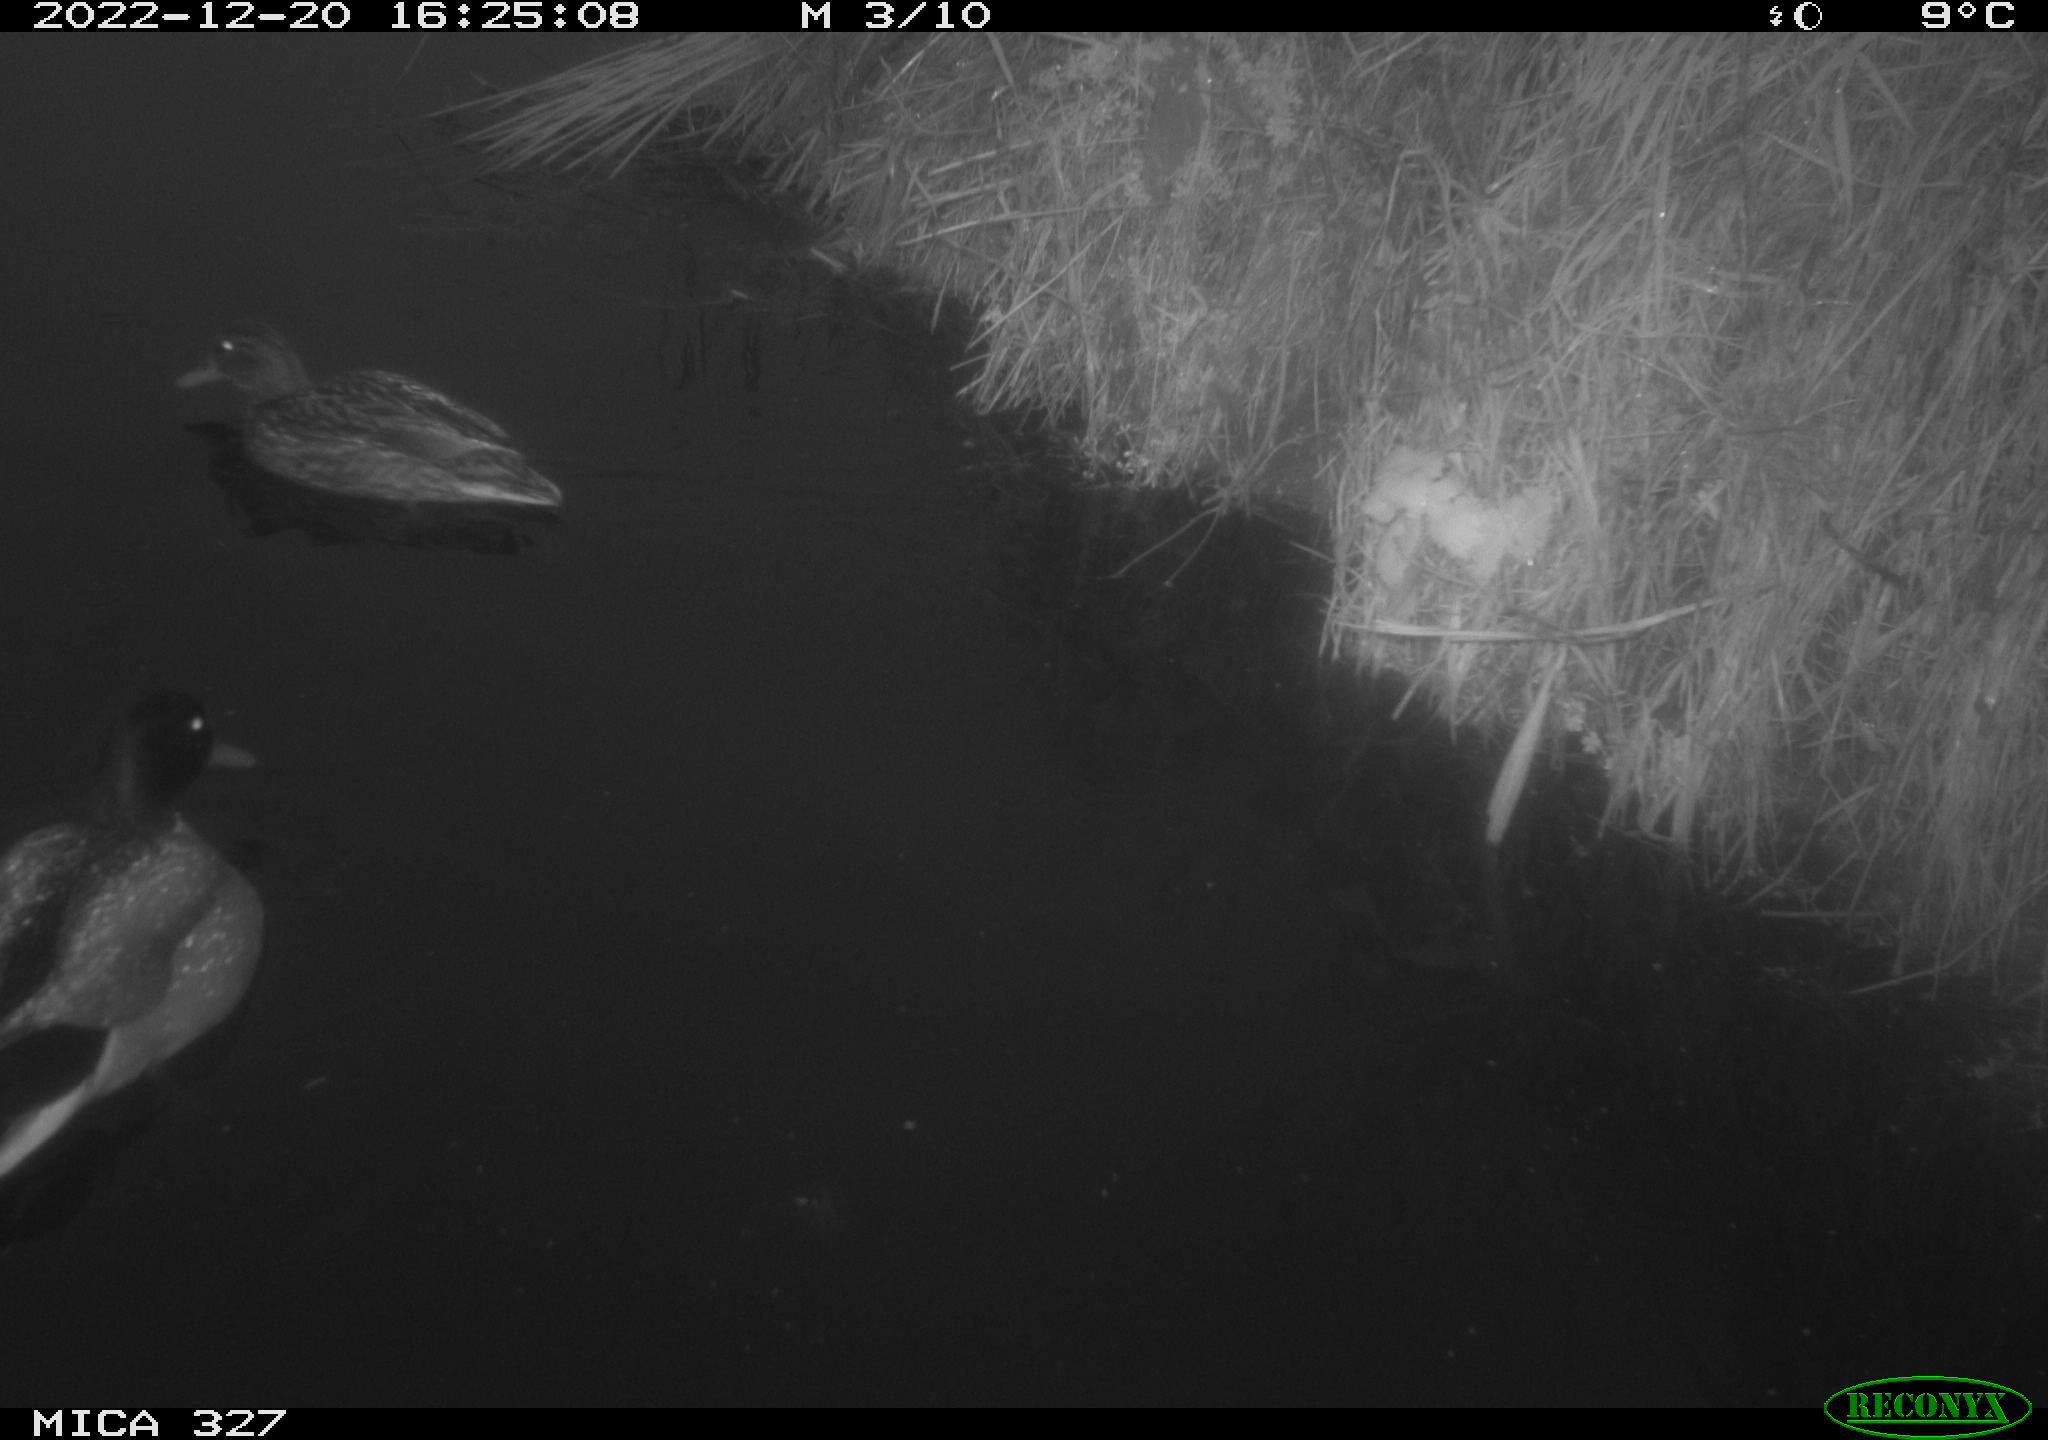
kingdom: Animalia
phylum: Chordata
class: Aves
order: Anseriformes
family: Anatidae
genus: Anas
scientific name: Anas
